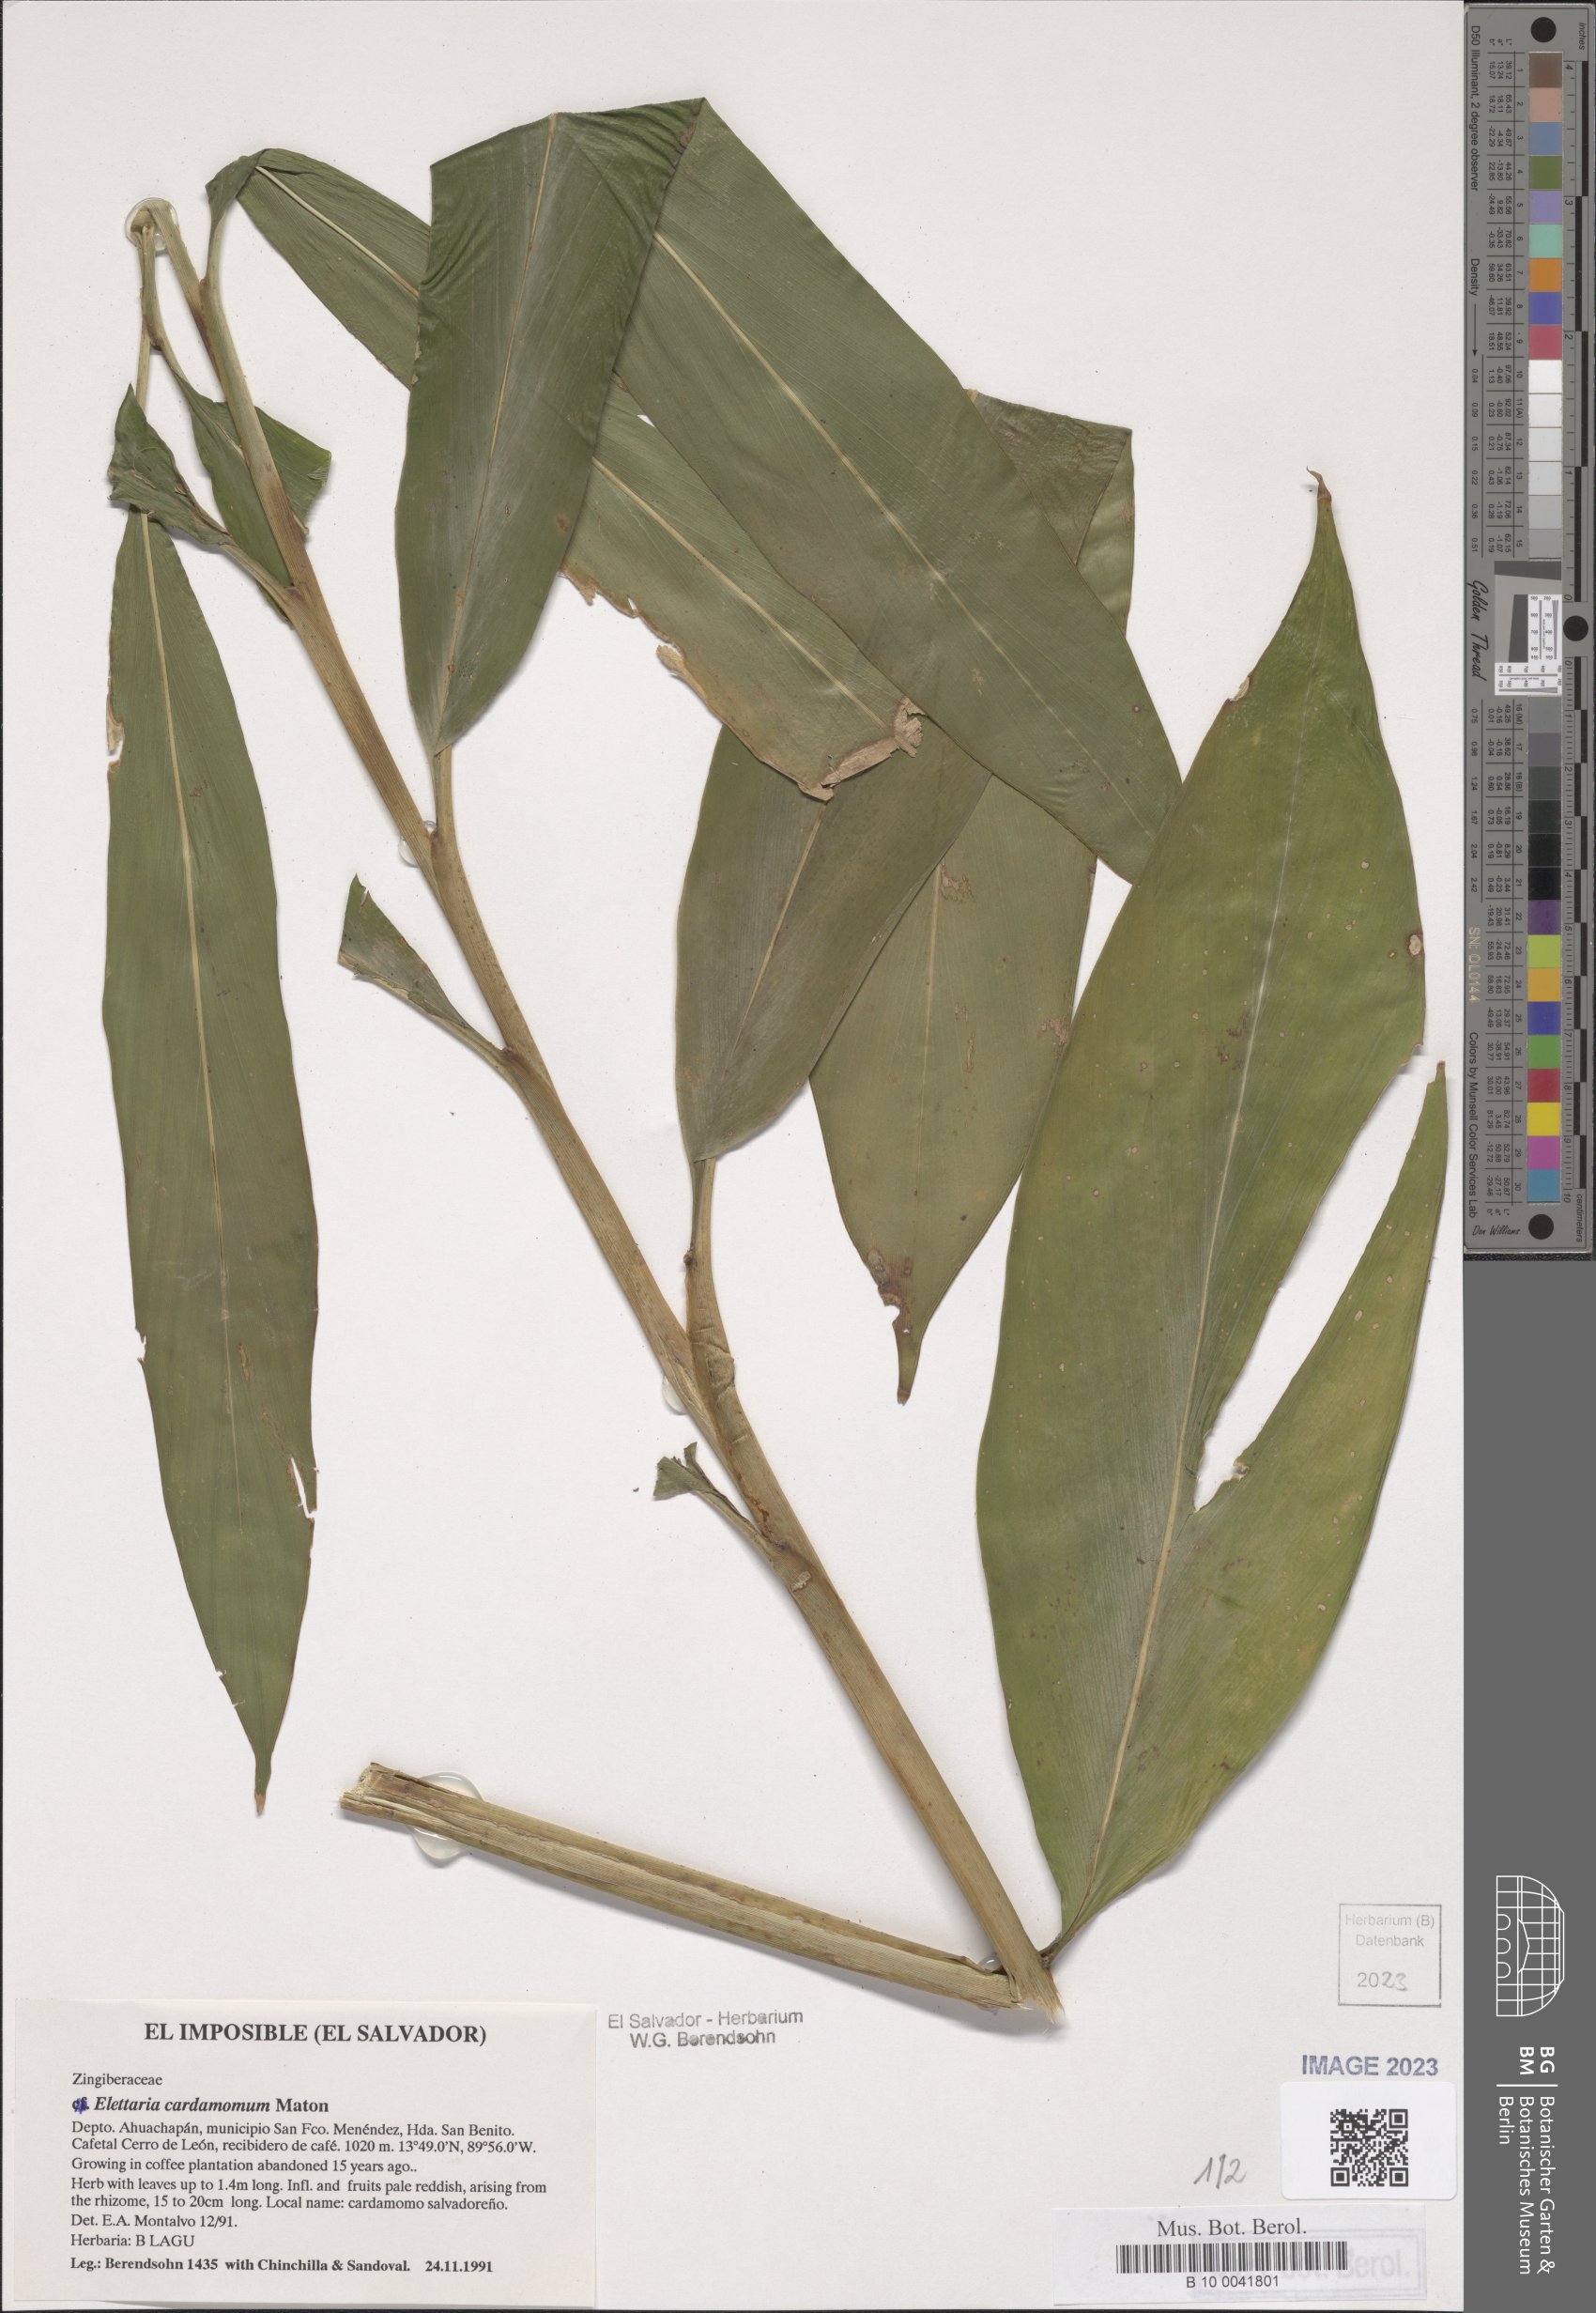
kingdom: Plantae
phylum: Tracheophyta
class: Liliopsida
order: Zingiberales
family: Zingiberaceae
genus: Renealmia
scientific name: Renealmia pacifica
